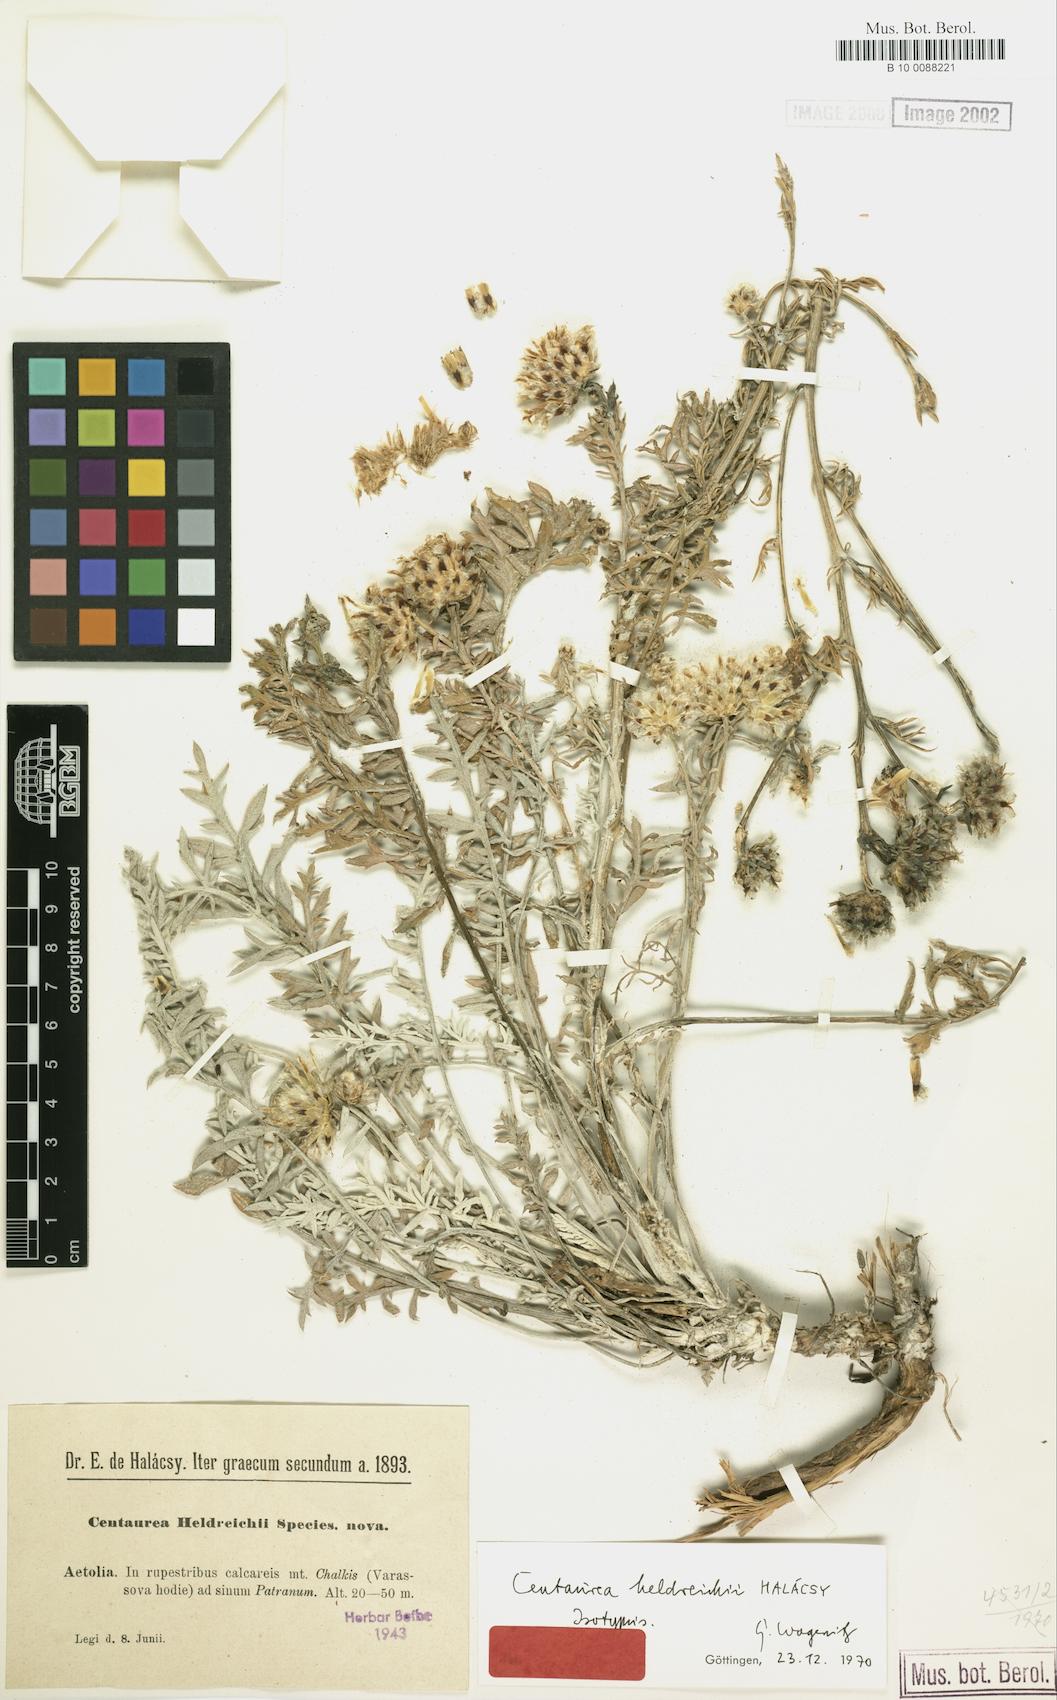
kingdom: Plantae
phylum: Tracheophyta
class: Magnoliopsida
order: Asterales
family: Asteraceae
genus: Centaurea
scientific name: Centaurea heldreichii
